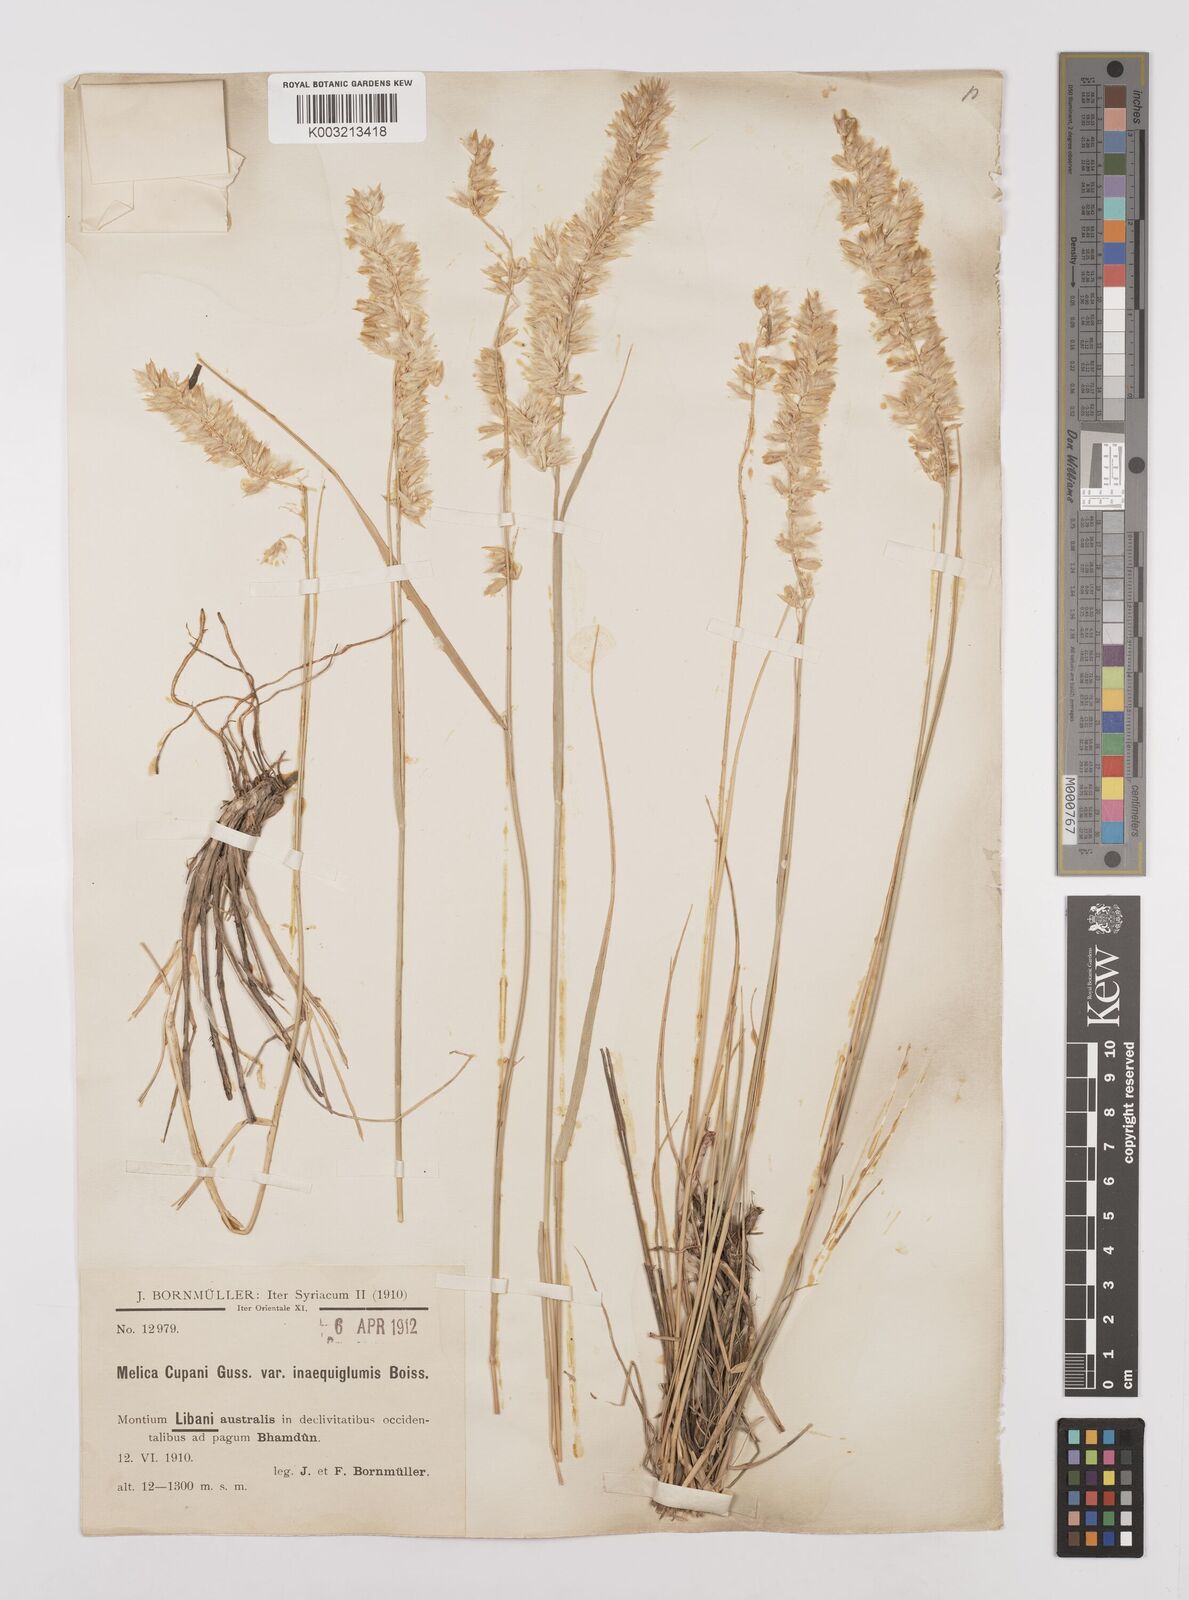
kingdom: Plantae
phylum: Tracheophyta
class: Liliopsida
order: Poales
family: Poaceae
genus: Melica
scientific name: Melica persica
